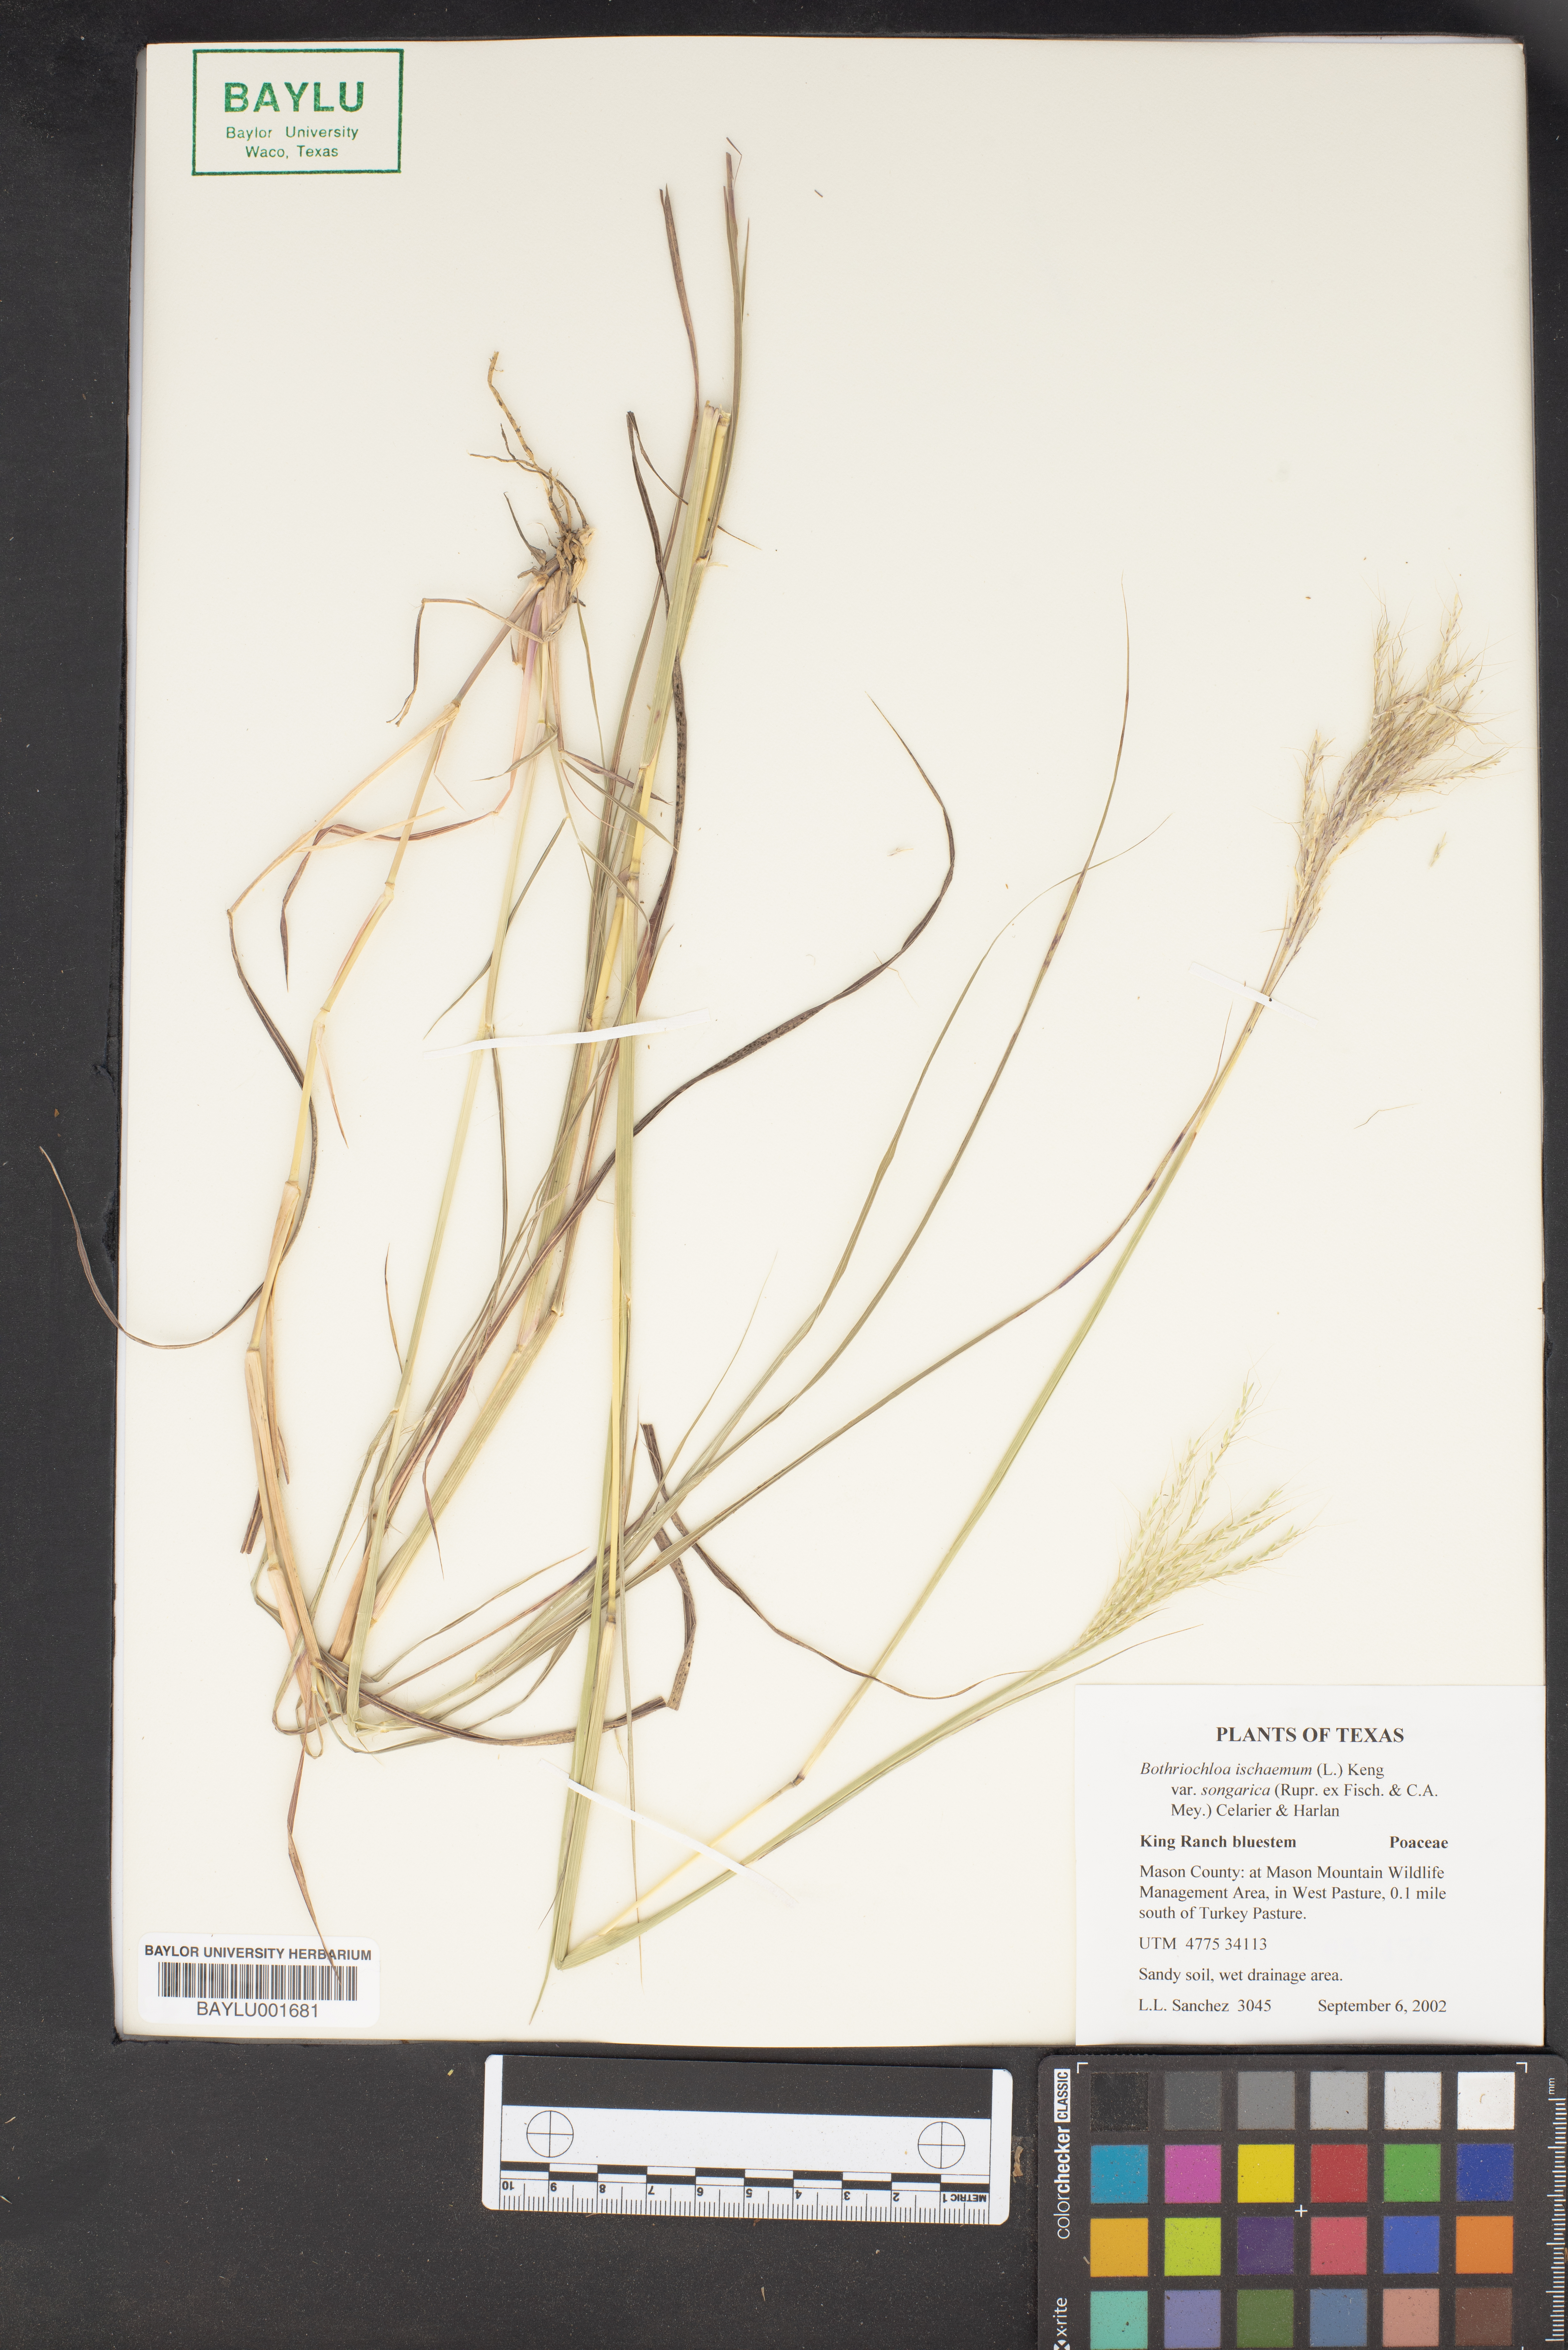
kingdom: Plantae
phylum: Tracheophyta
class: Liliopsida
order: Poales
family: Poaceae
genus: Bothriochloa
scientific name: Bothriochloa ischaemum
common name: Yellow bluestem
